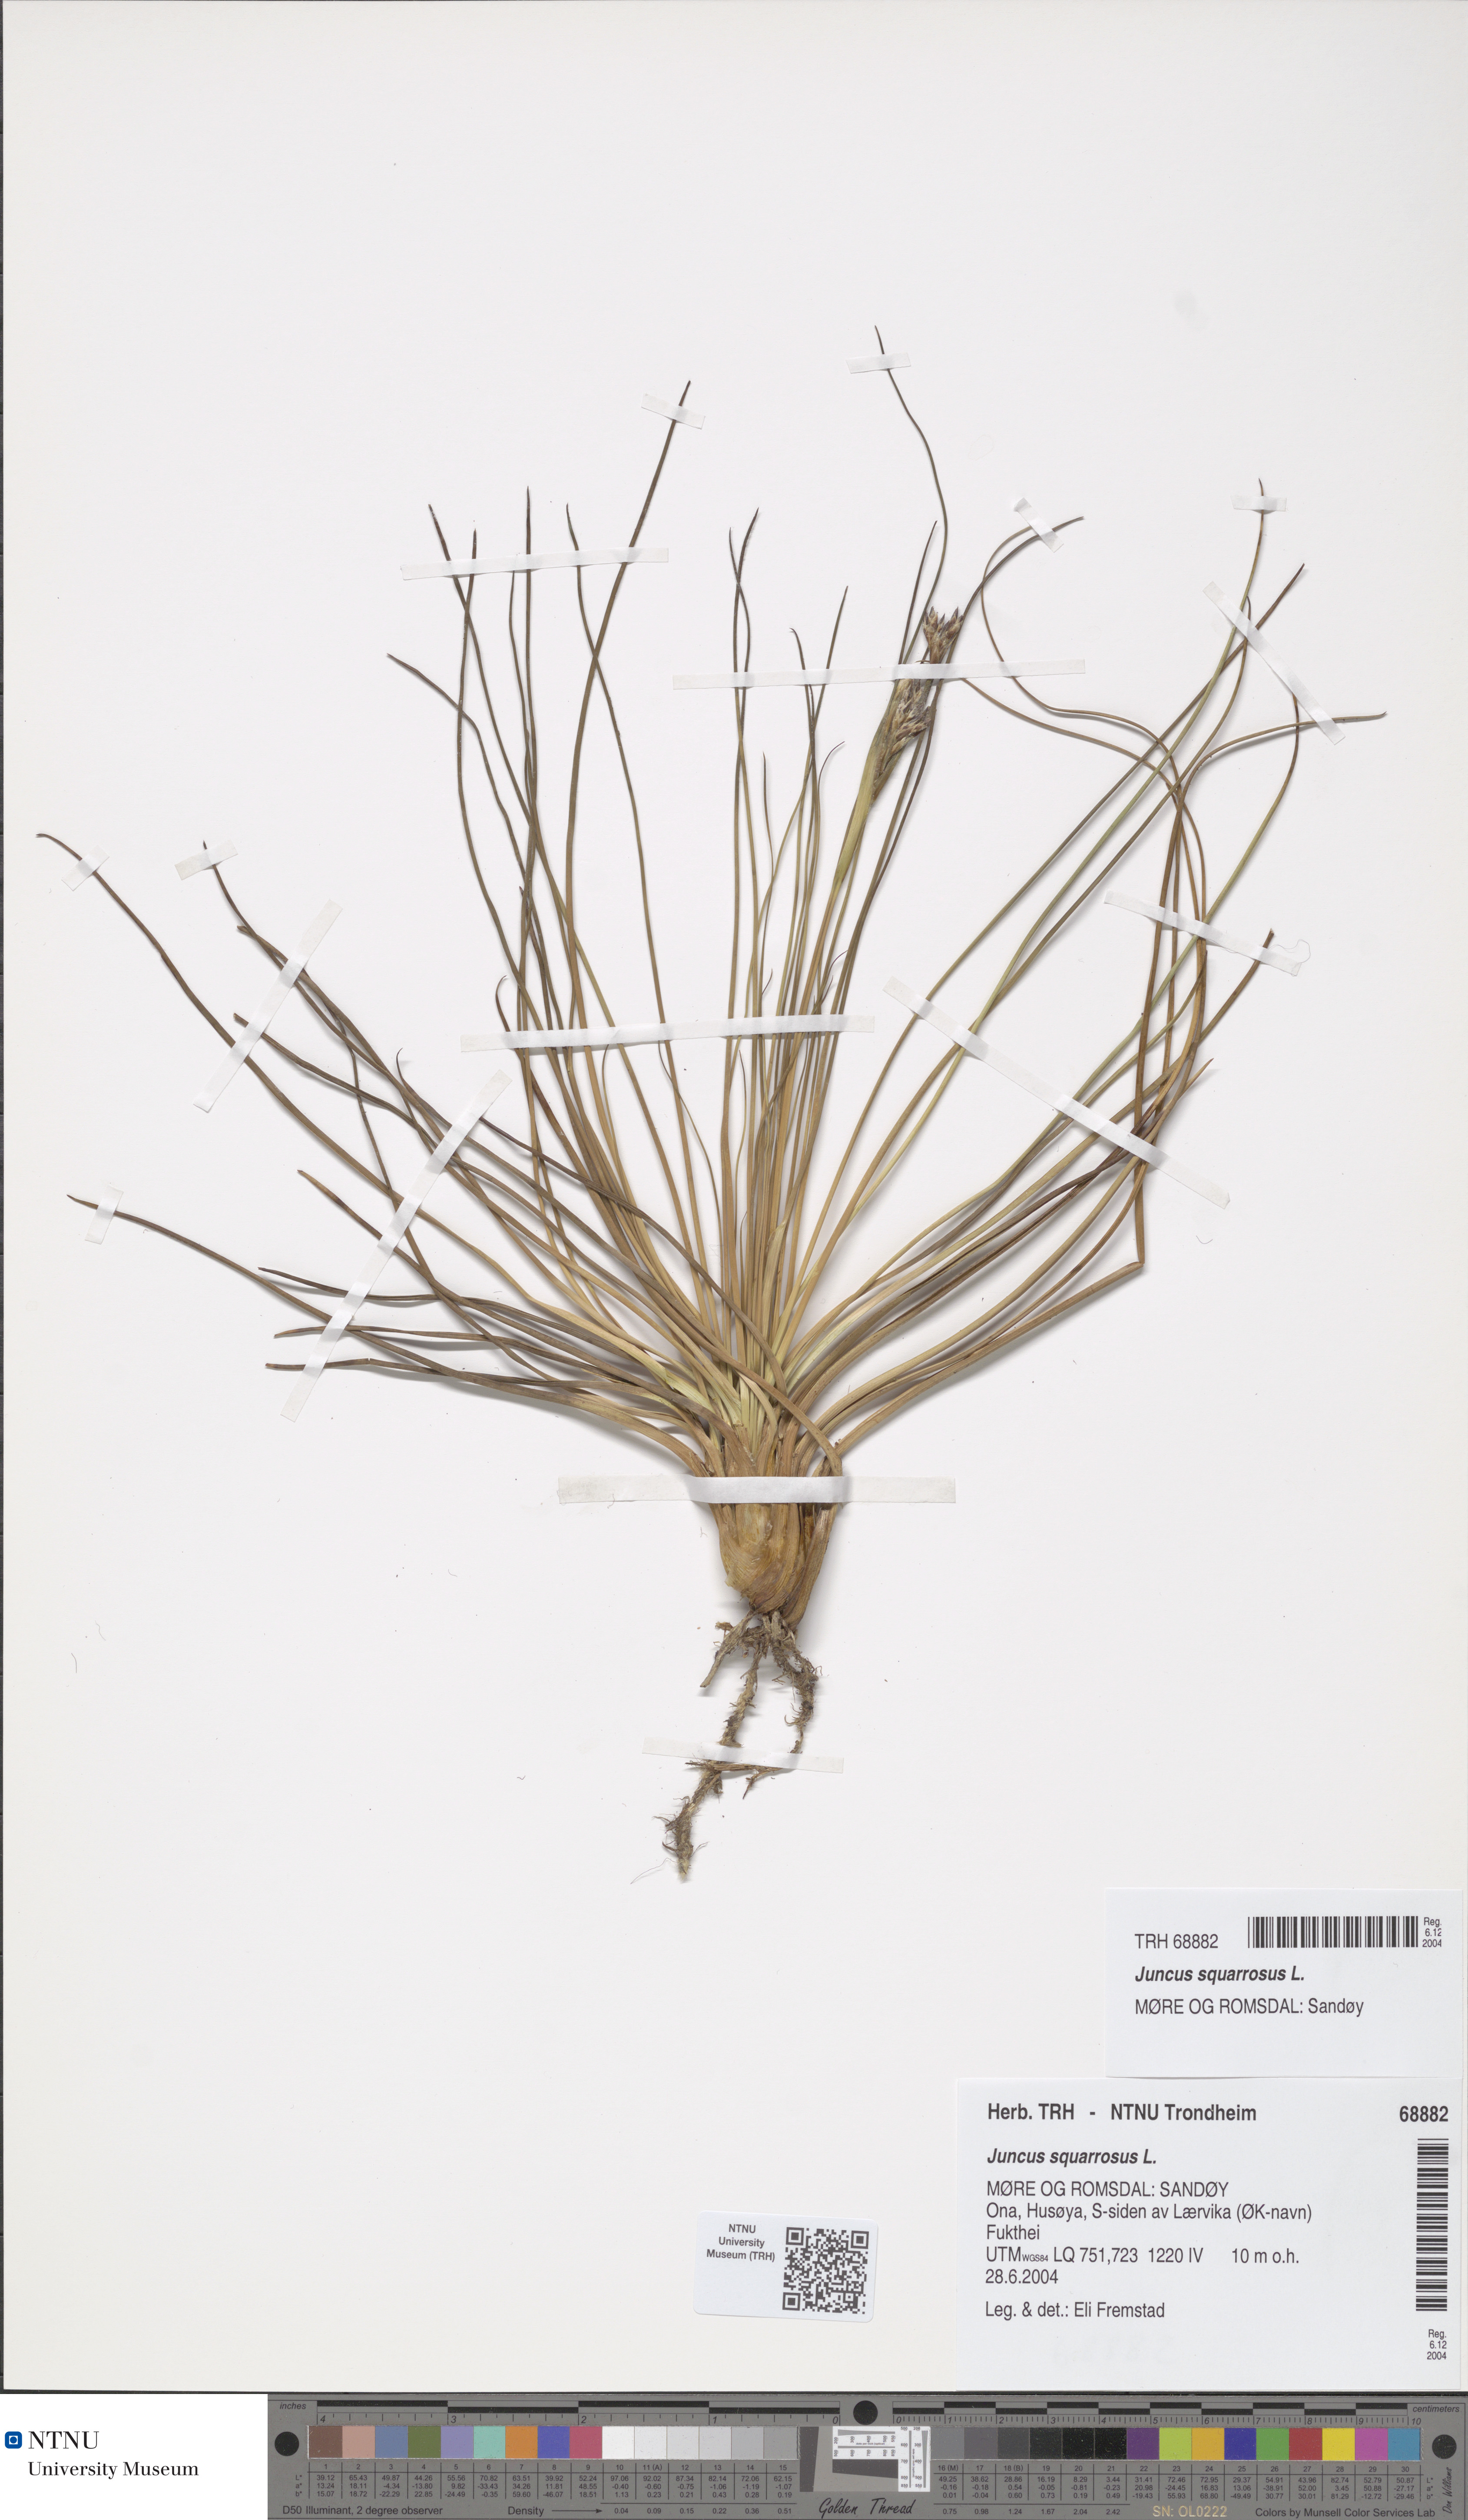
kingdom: Plantae
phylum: Tracheophyta
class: Liliopsida
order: Poales
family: Juncaceae
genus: Juncus
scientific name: Juncus squarrosus
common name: Heath rush
